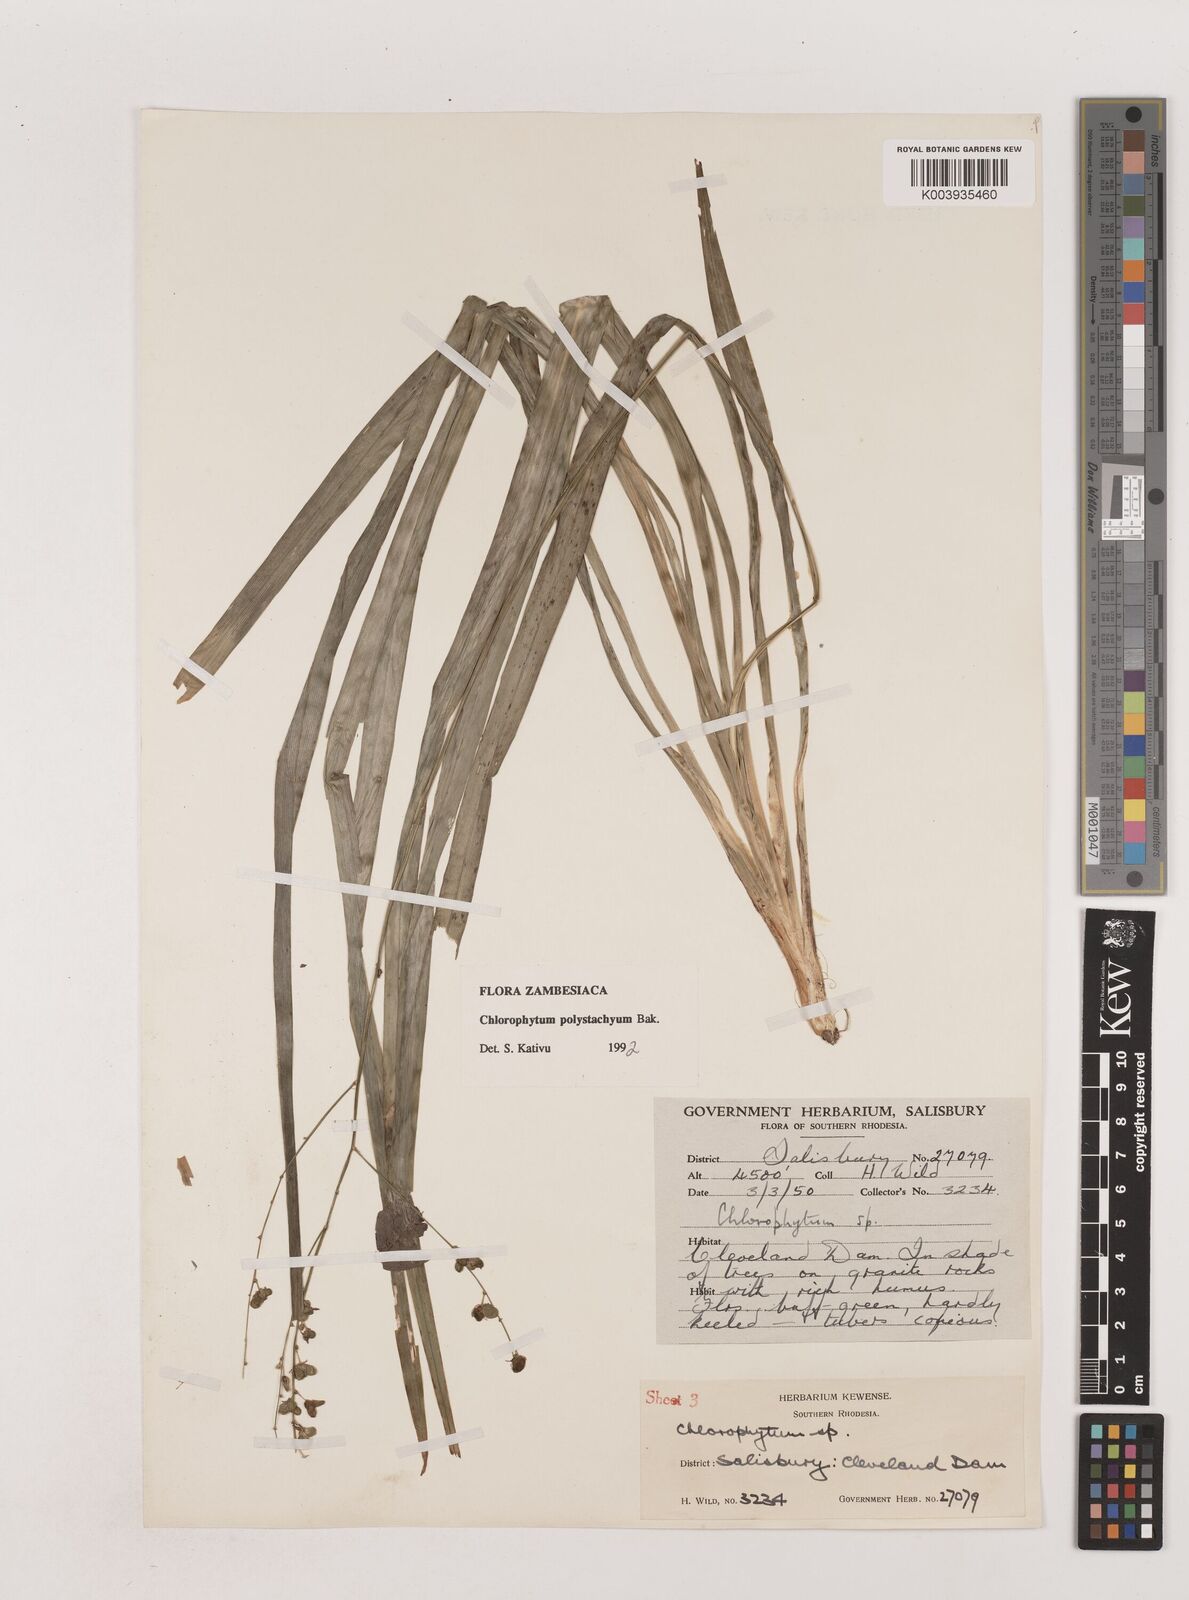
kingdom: Plantae
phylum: Tracheophyta
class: Liliopsida
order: Asparagales
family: Asparagaceae
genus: Chlorophytum
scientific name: Chlorophytum polystachys
